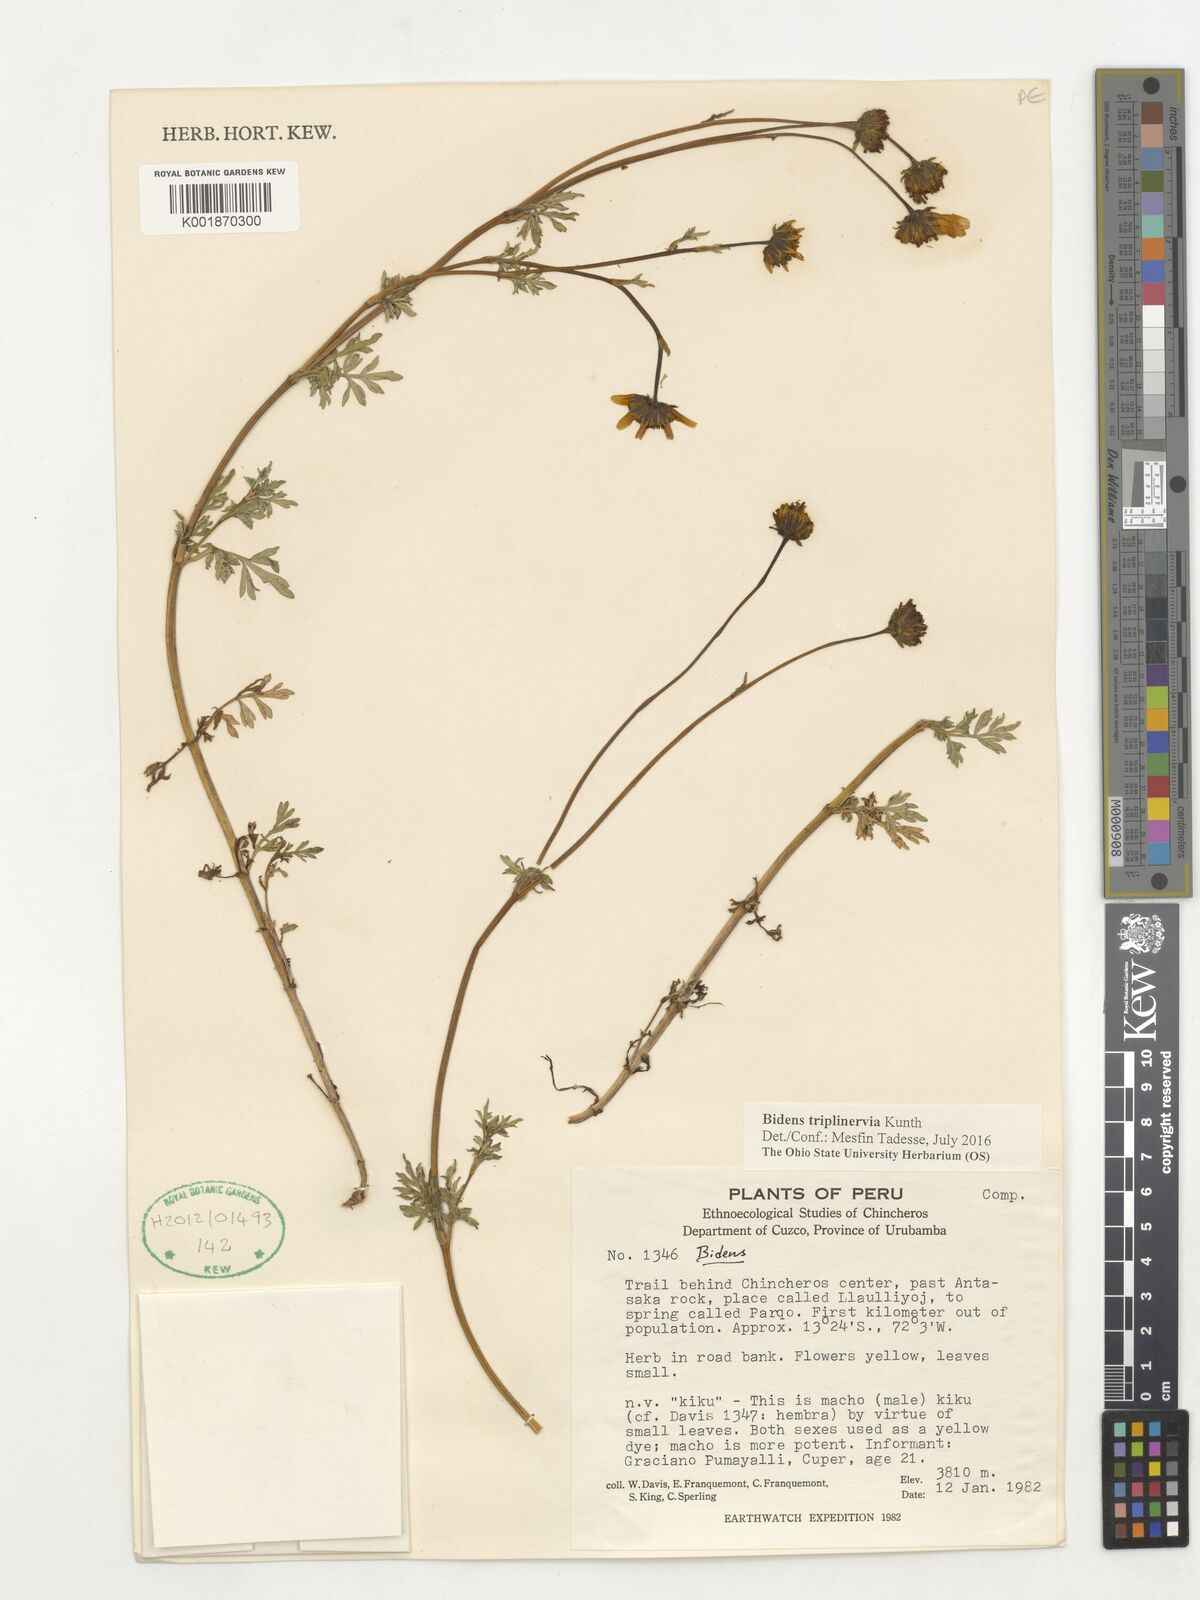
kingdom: Plantae
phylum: Tracheophyta
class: Magnoliopsida
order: Asterales
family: Asteraceae
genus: Bidens
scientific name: Bidens triplinervia
